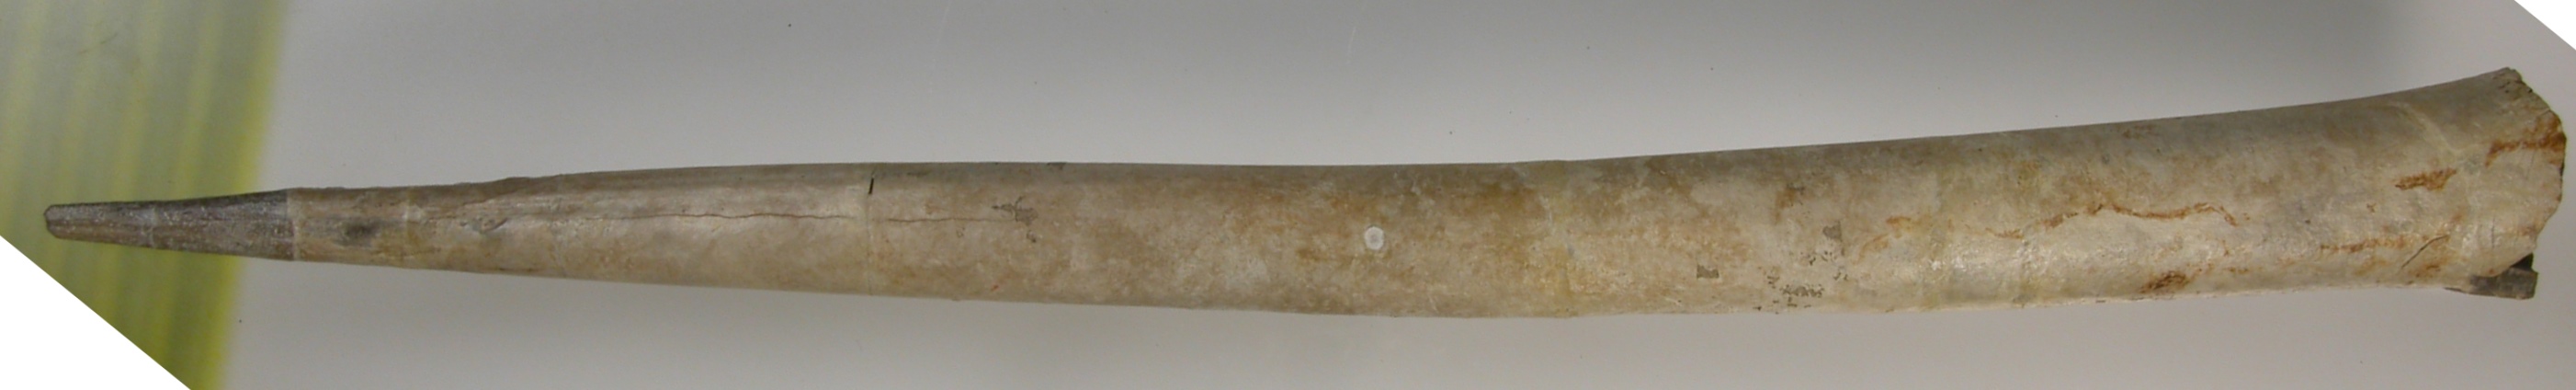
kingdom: Animalia
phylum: Mollusca
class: Cephalopoda
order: Belemnitida
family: Megateuthididae
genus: Megateuthis
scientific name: Megateuthis
